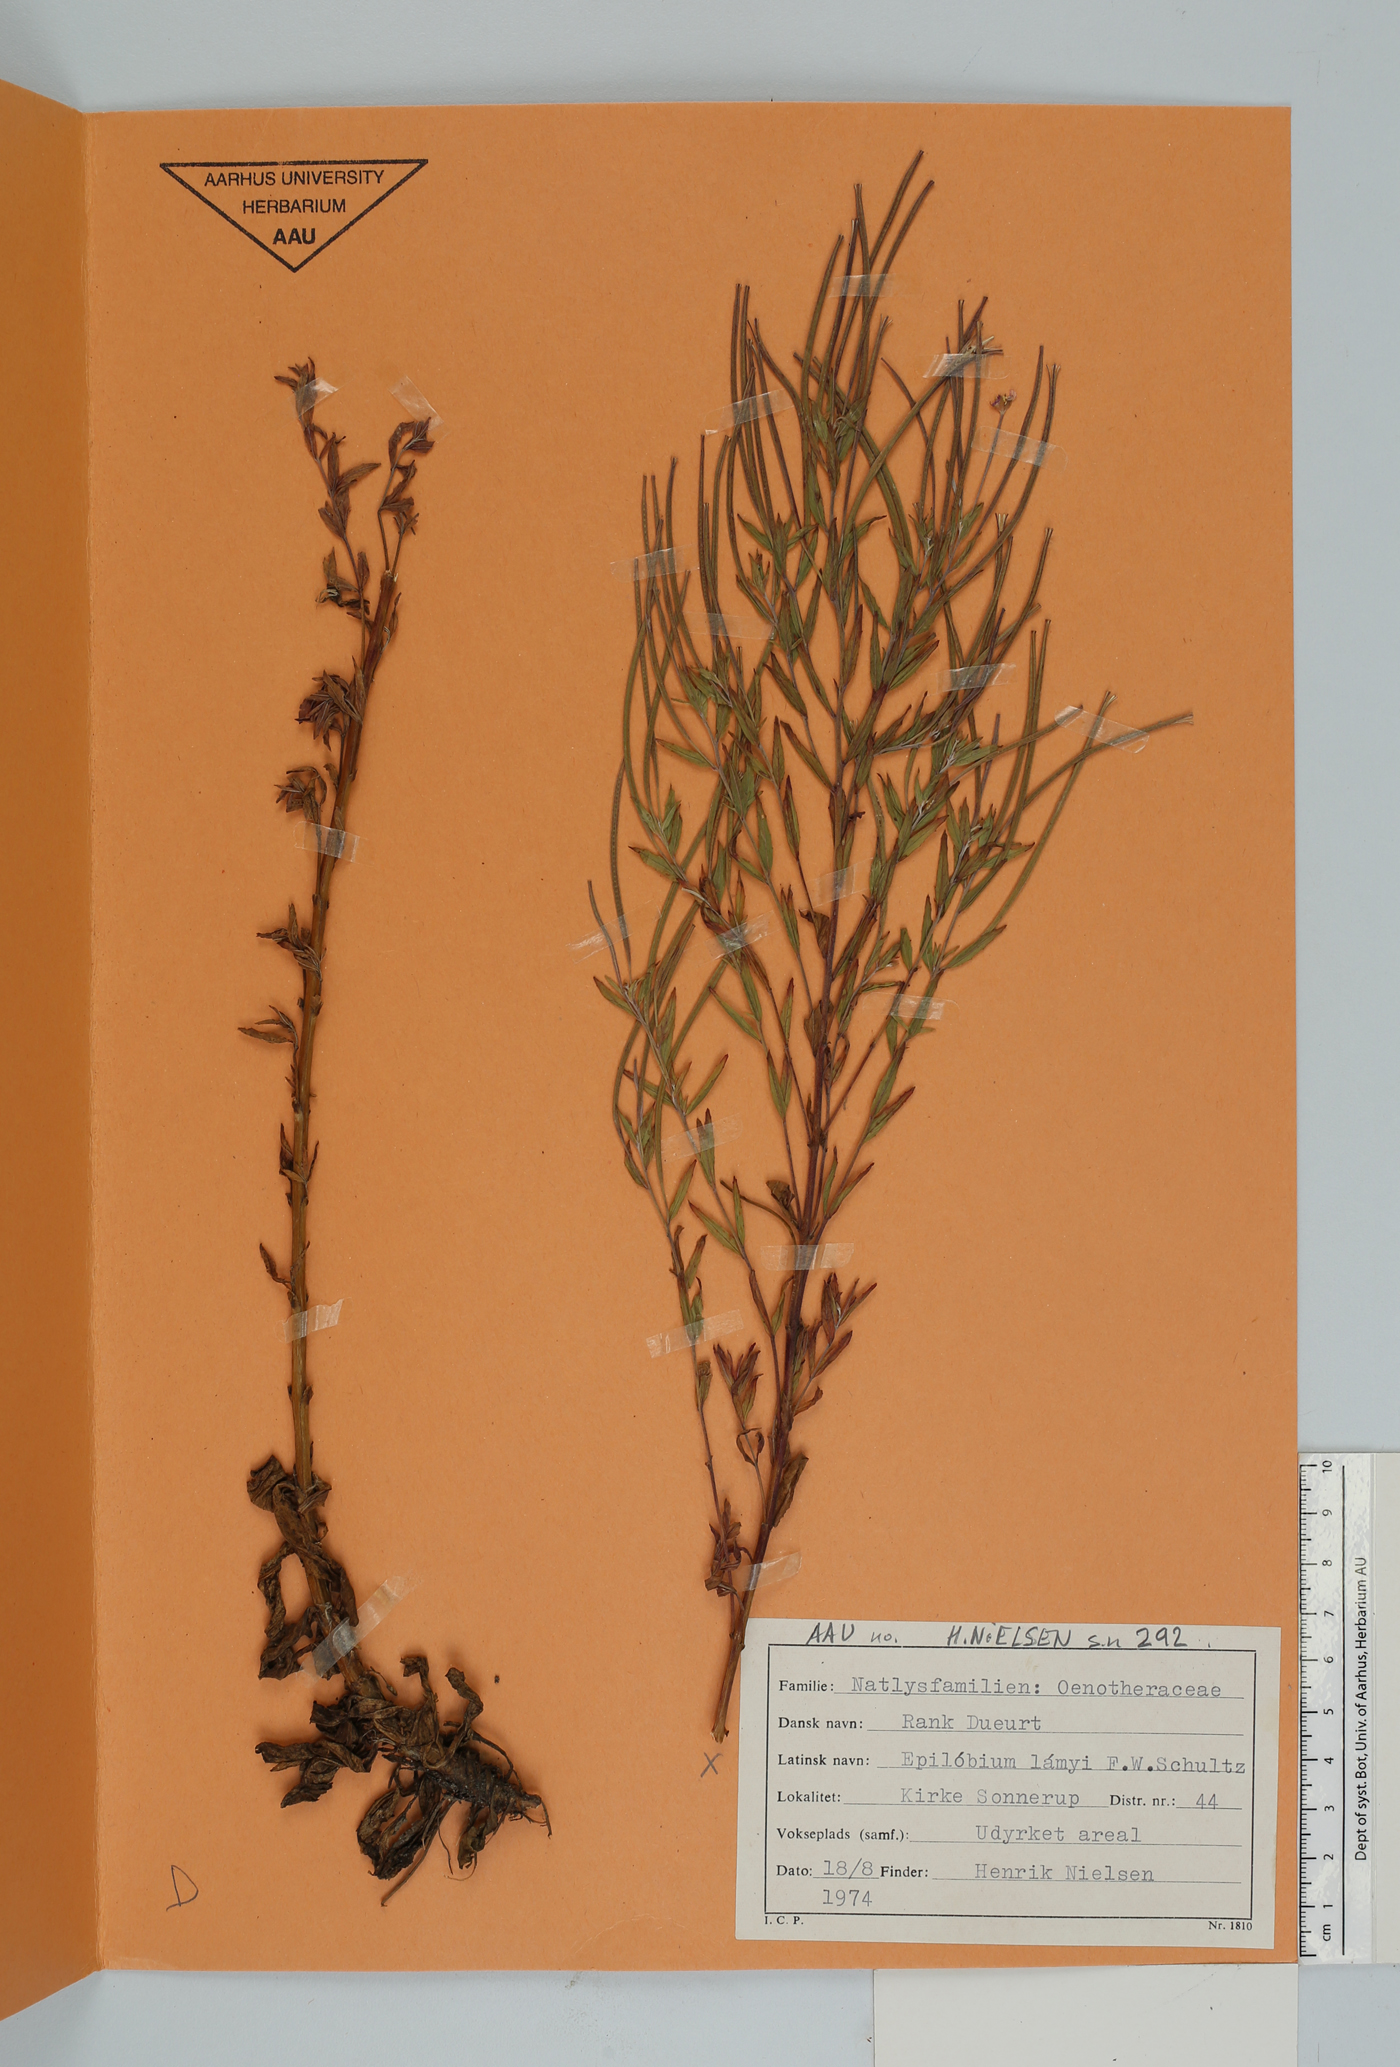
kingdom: Plantae
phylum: Tracheophyta
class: Magnoliopsida
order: Myrtales
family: Onagraceae
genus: Epilobium
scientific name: Epilobium lamyi
